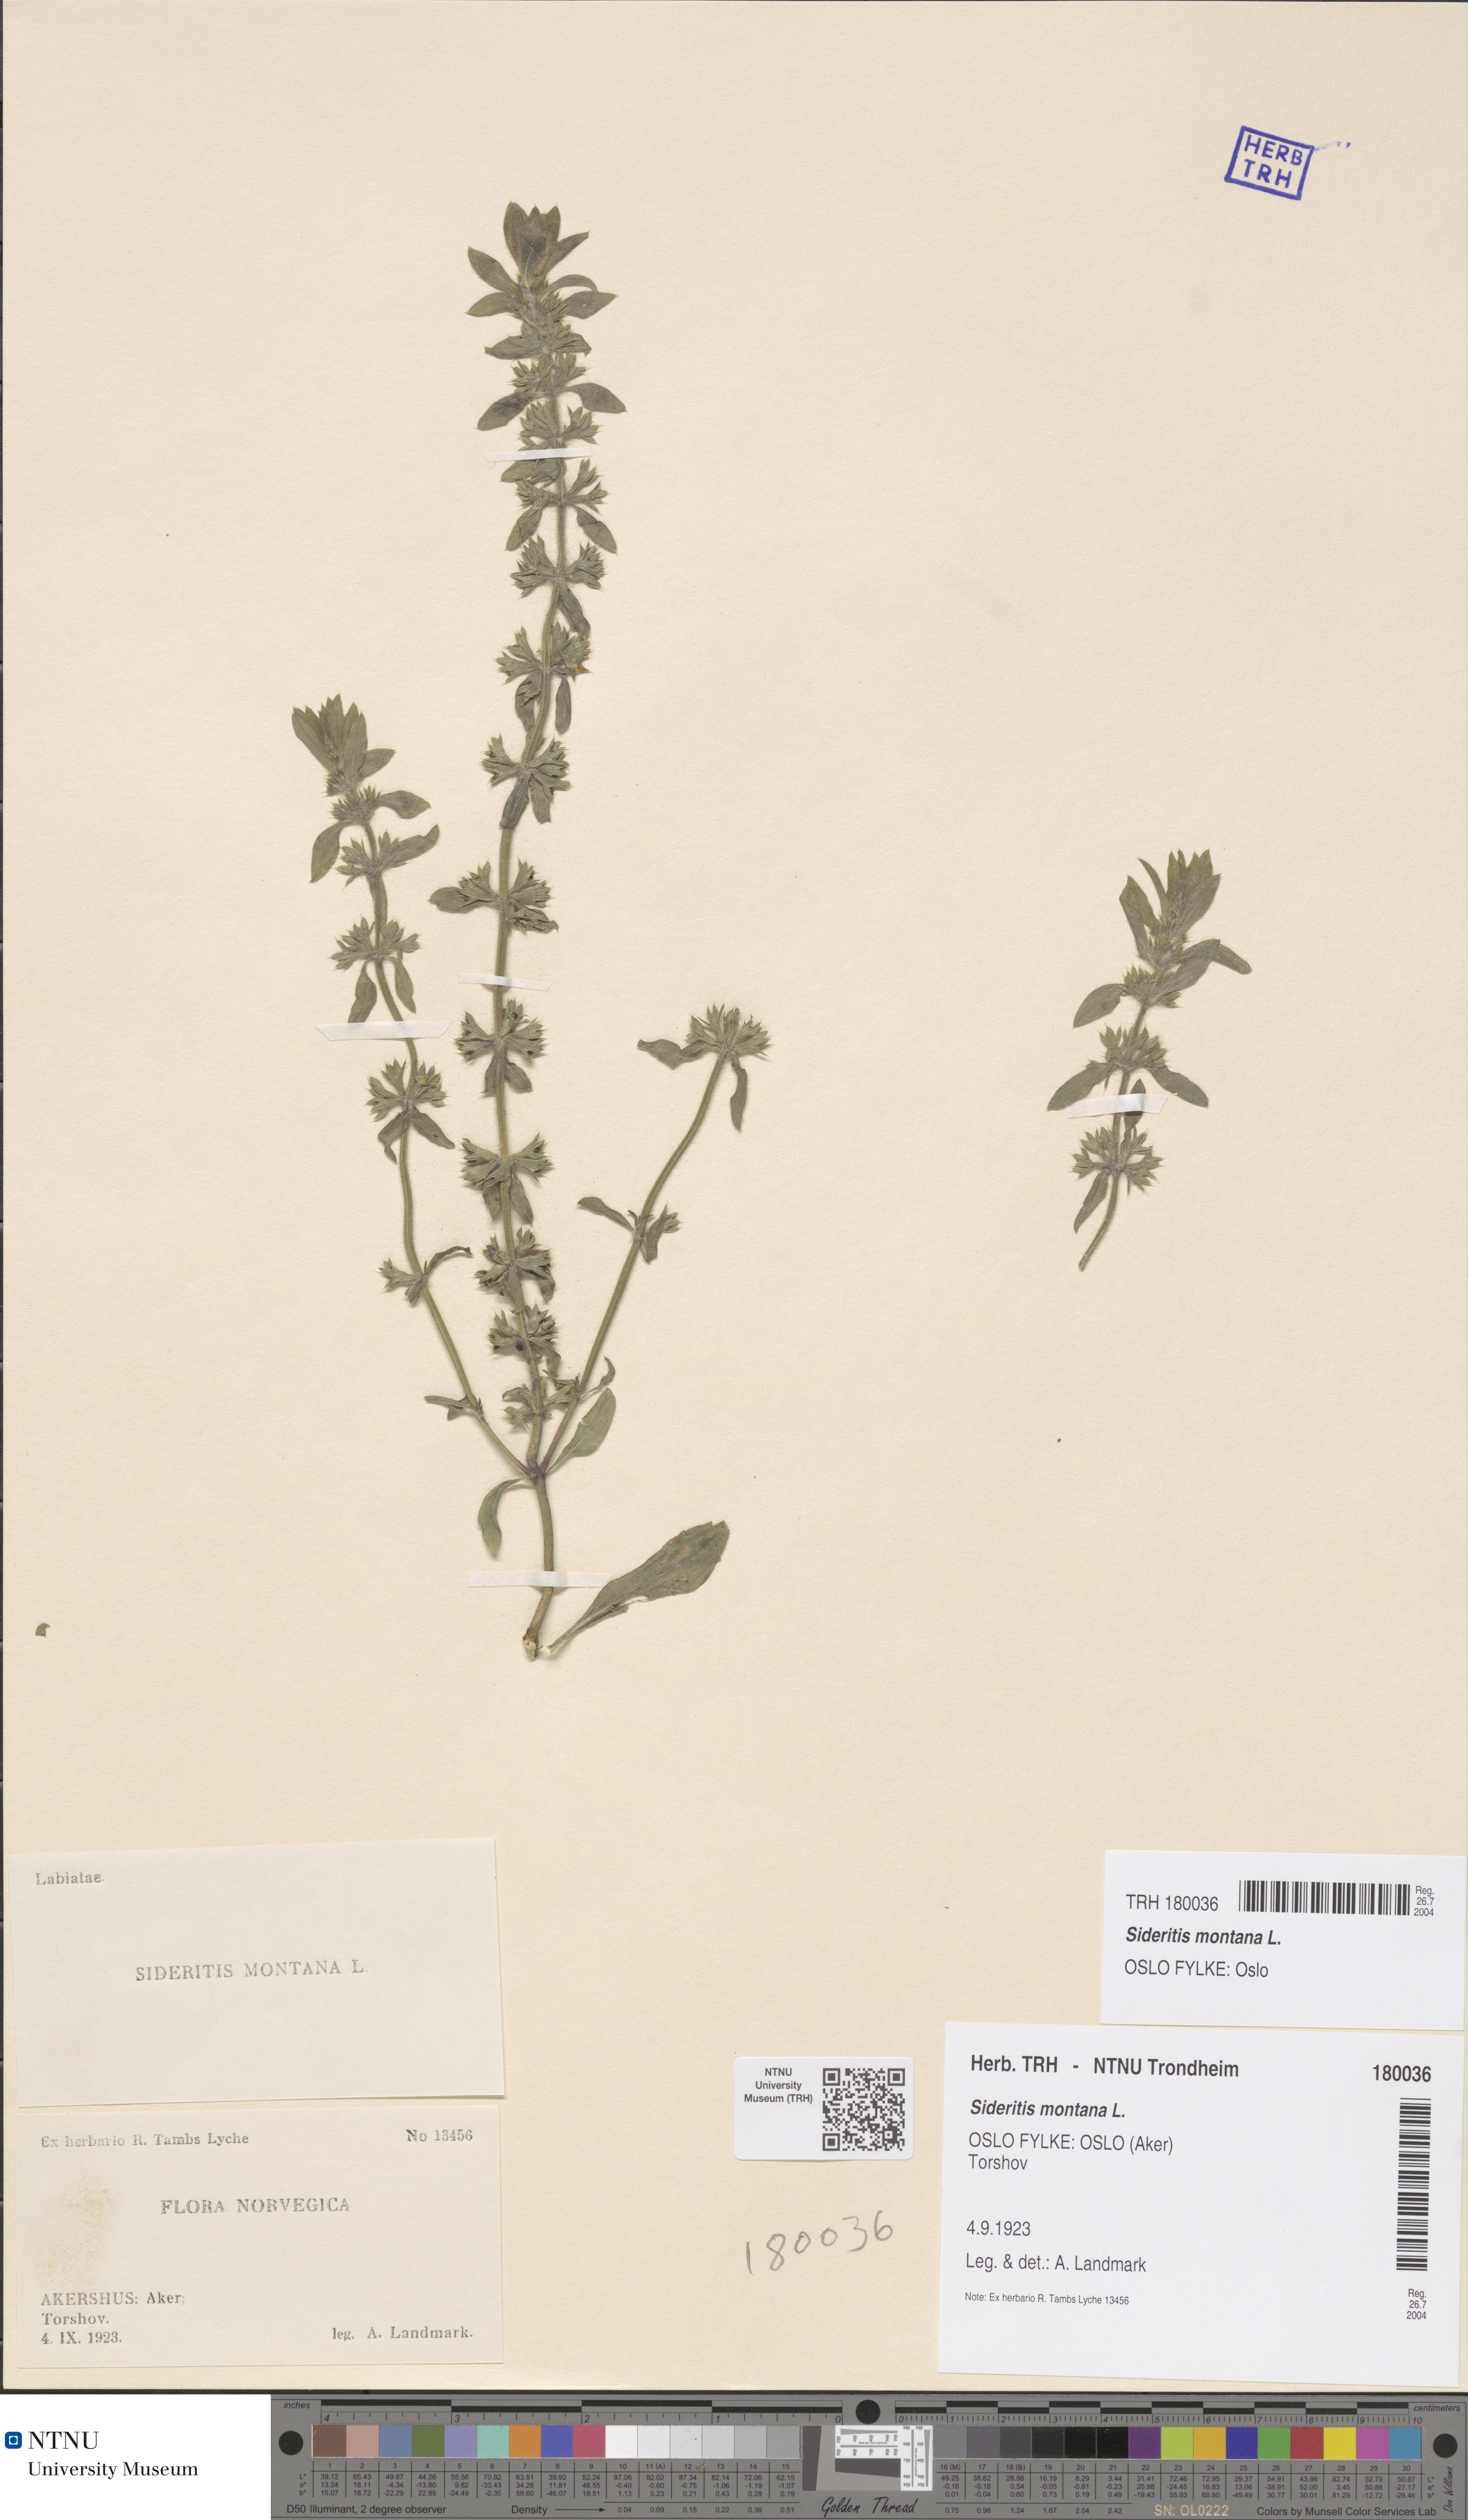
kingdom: Plantae
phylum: Tracheophyta
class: Magnoliopsida
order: Lamiales
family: Lamiaceae
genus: Sideritis
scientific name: Sideritis montana
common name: Mountain ironwort
